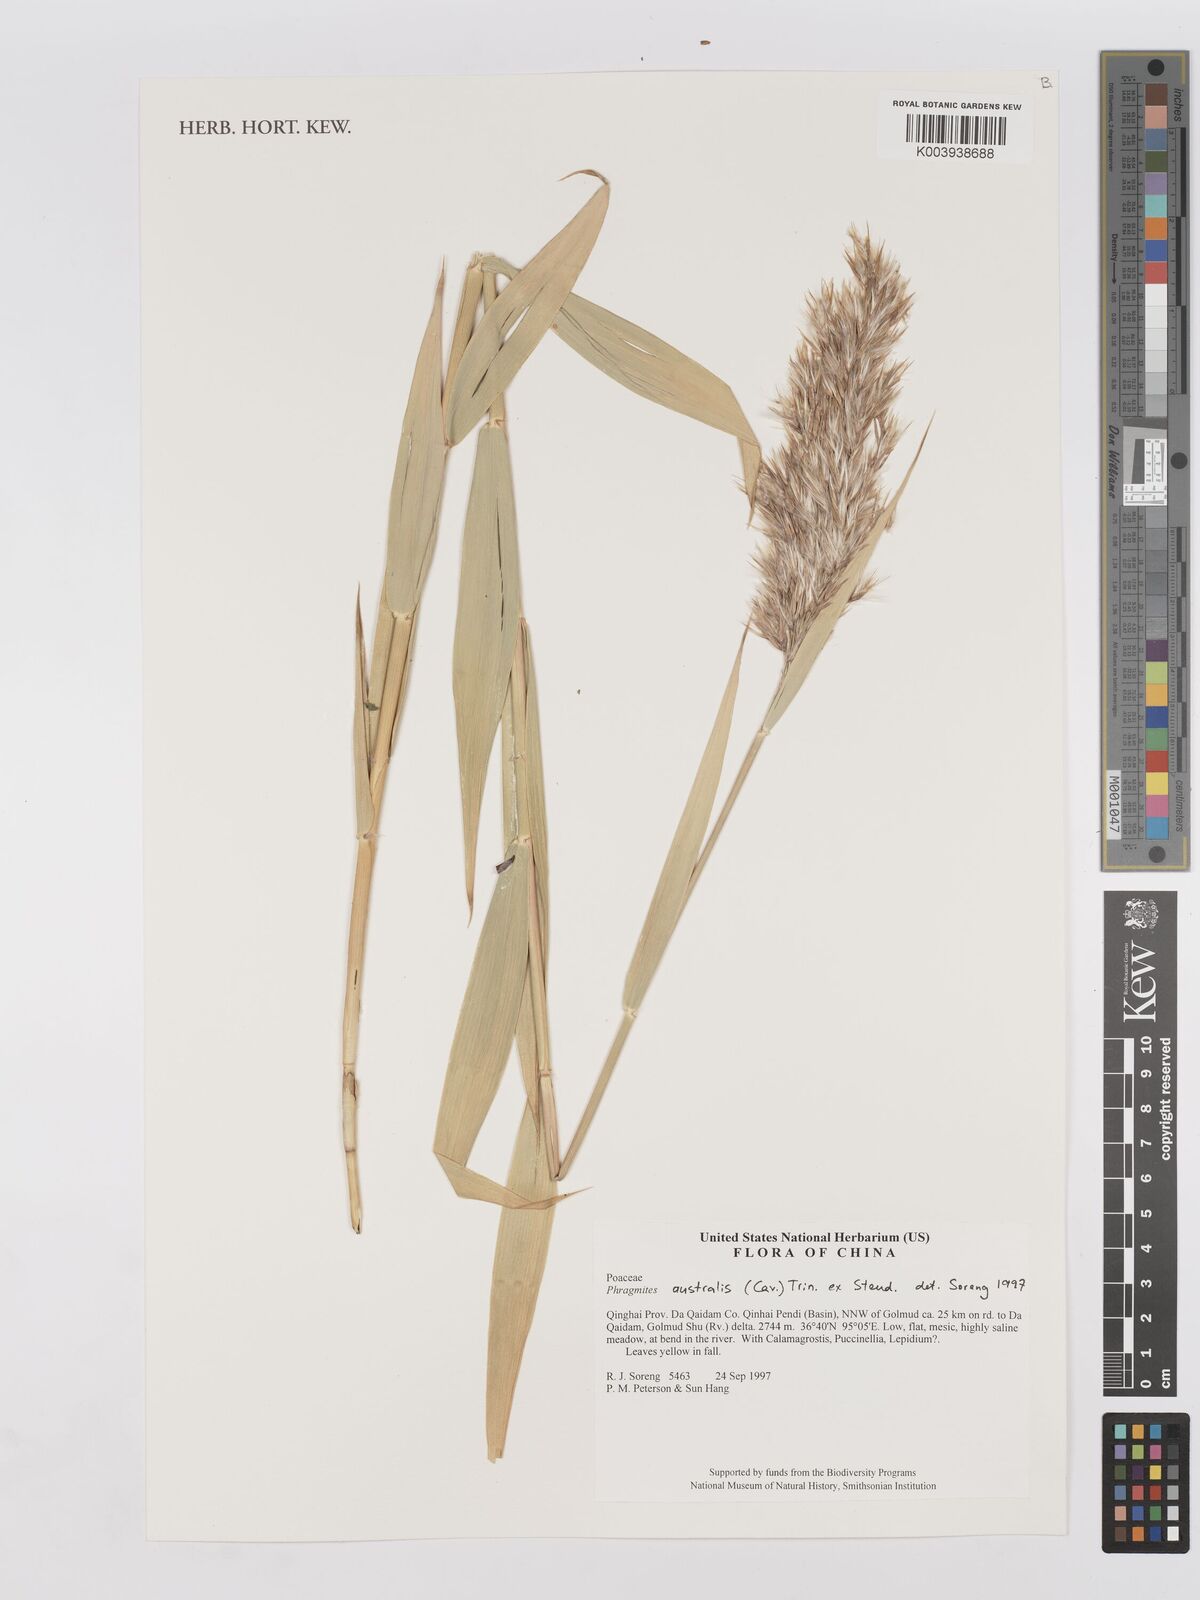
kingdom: Plantae
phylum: Tracheophyta
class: Liliopsida
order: Poales
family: Poaceae
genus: Phragmites
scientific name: Phragmites australis
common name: Common reed
